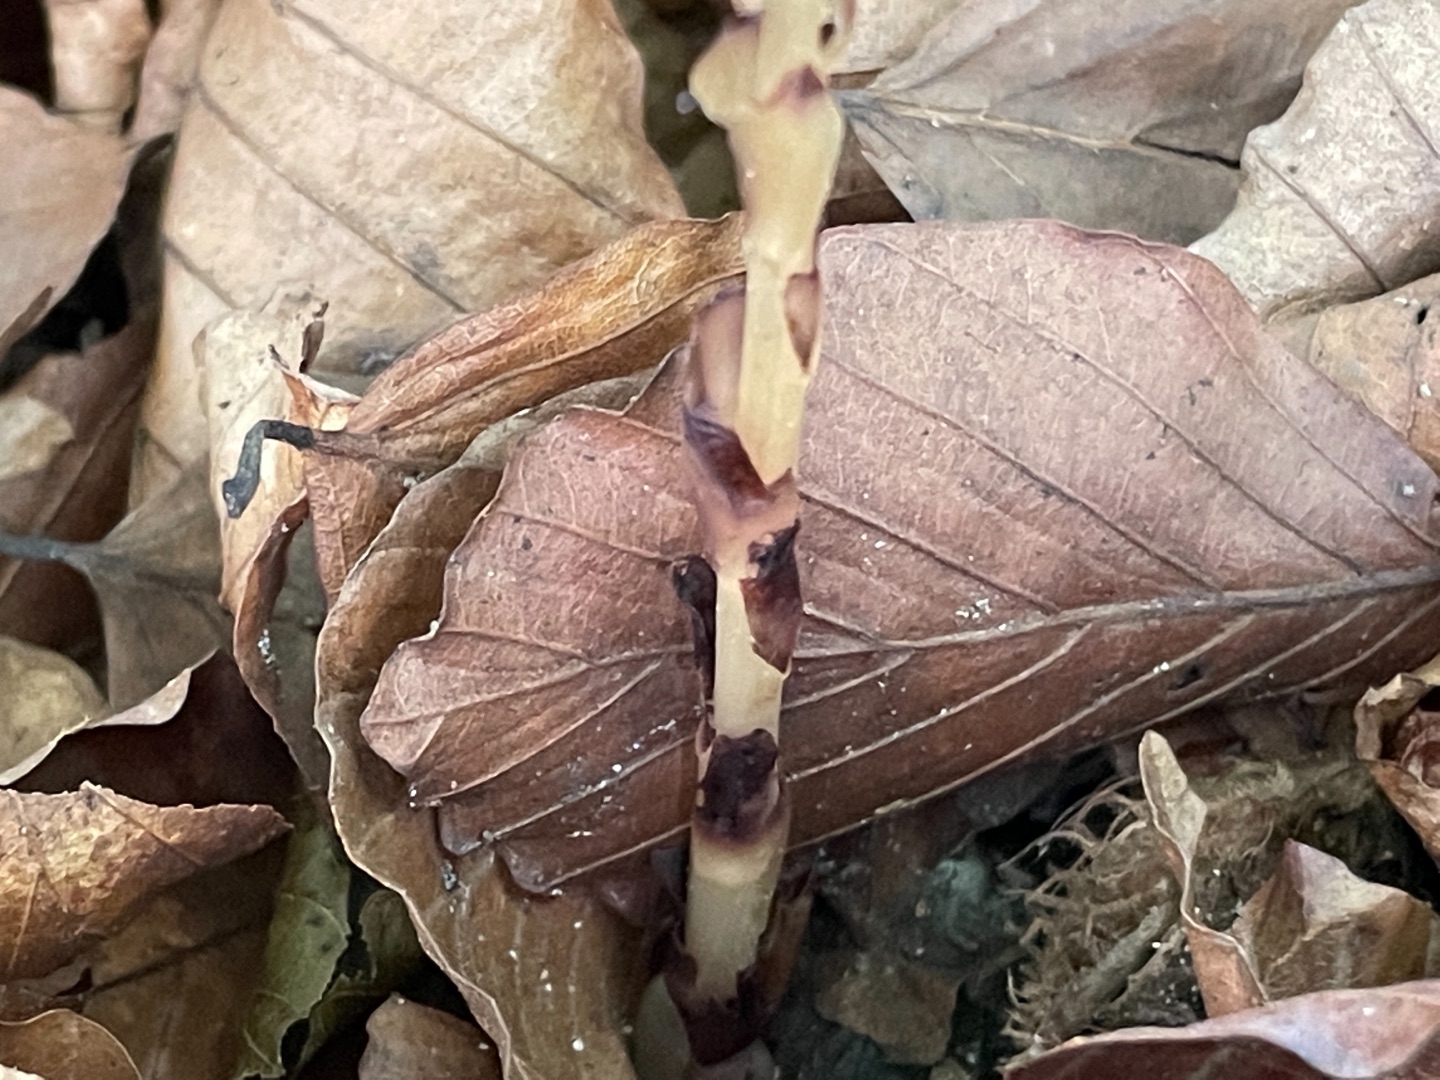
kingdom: Plantae
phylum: Tracheophyta
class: Magnoliopsida
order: Ericales
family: Ericaceae
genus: Hypopitys
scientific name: Hypopitys monotropa
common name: Snylterod
